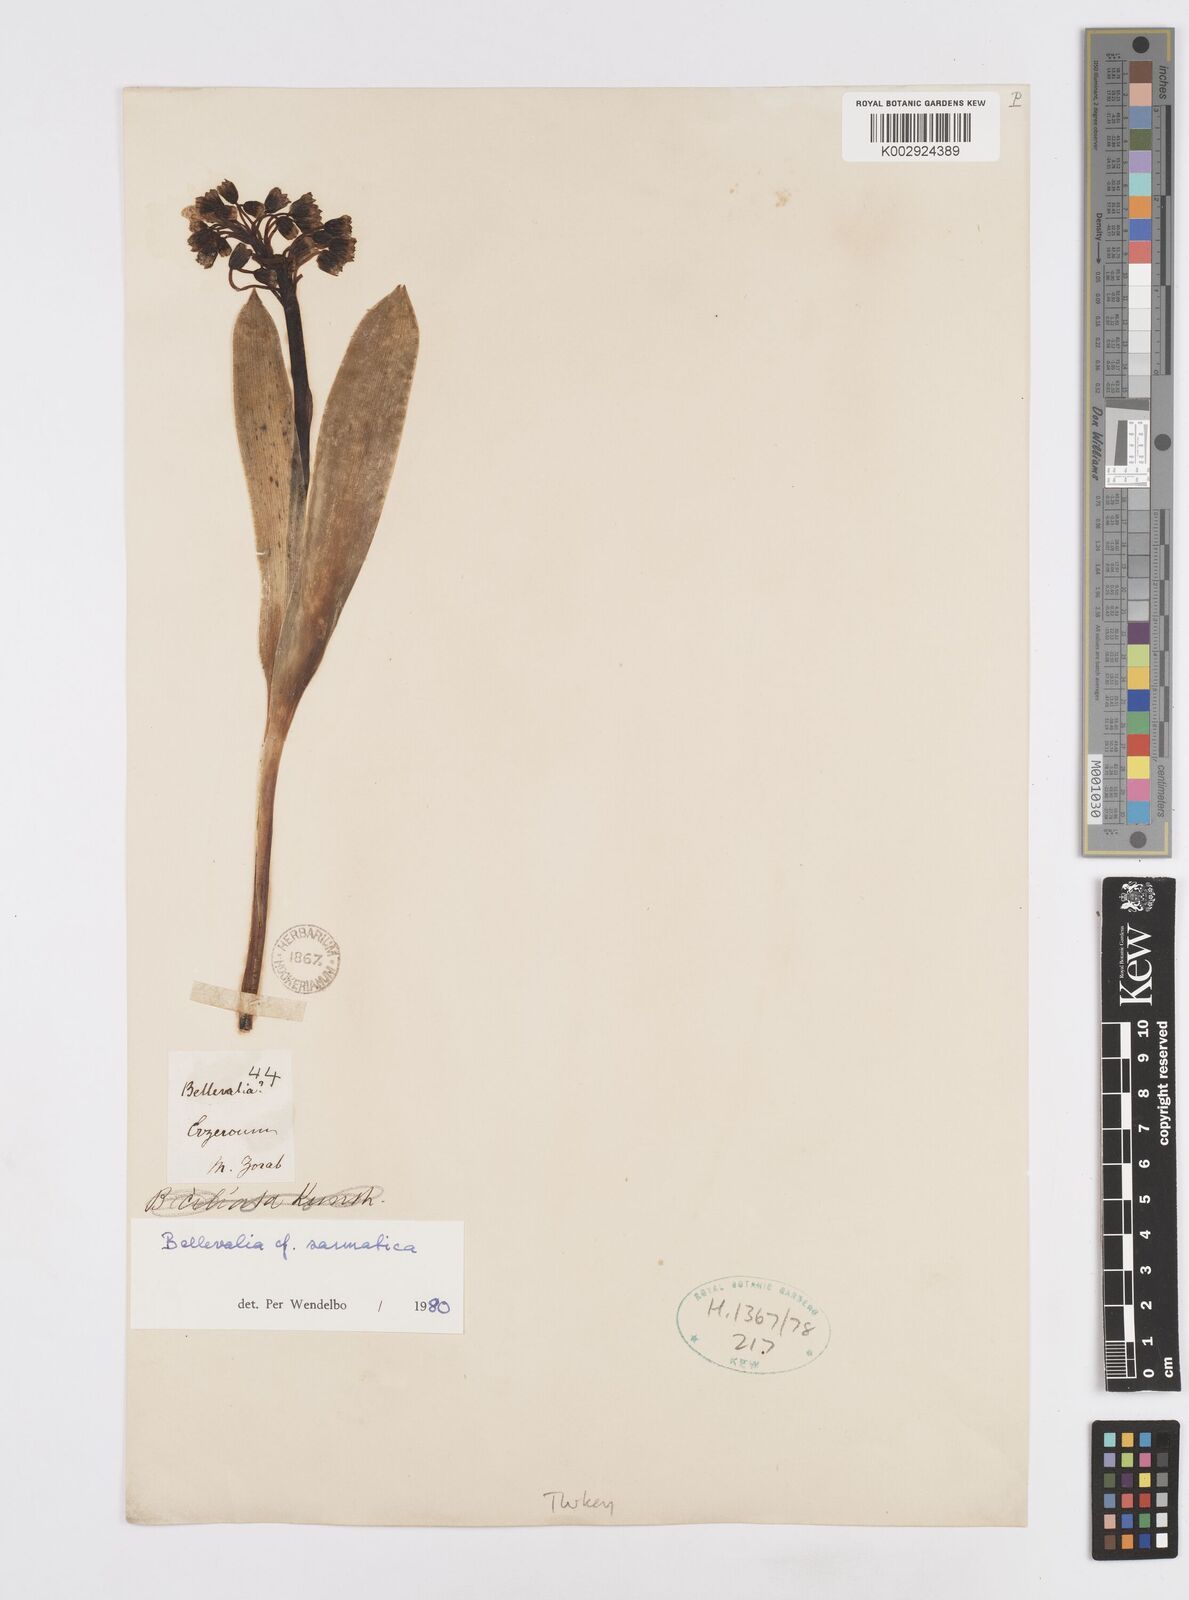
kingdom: Plantae
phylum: Tracheophyta
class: Liliopsida
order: Asparagales
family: Asparagaceae
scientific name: Asparagaceae
